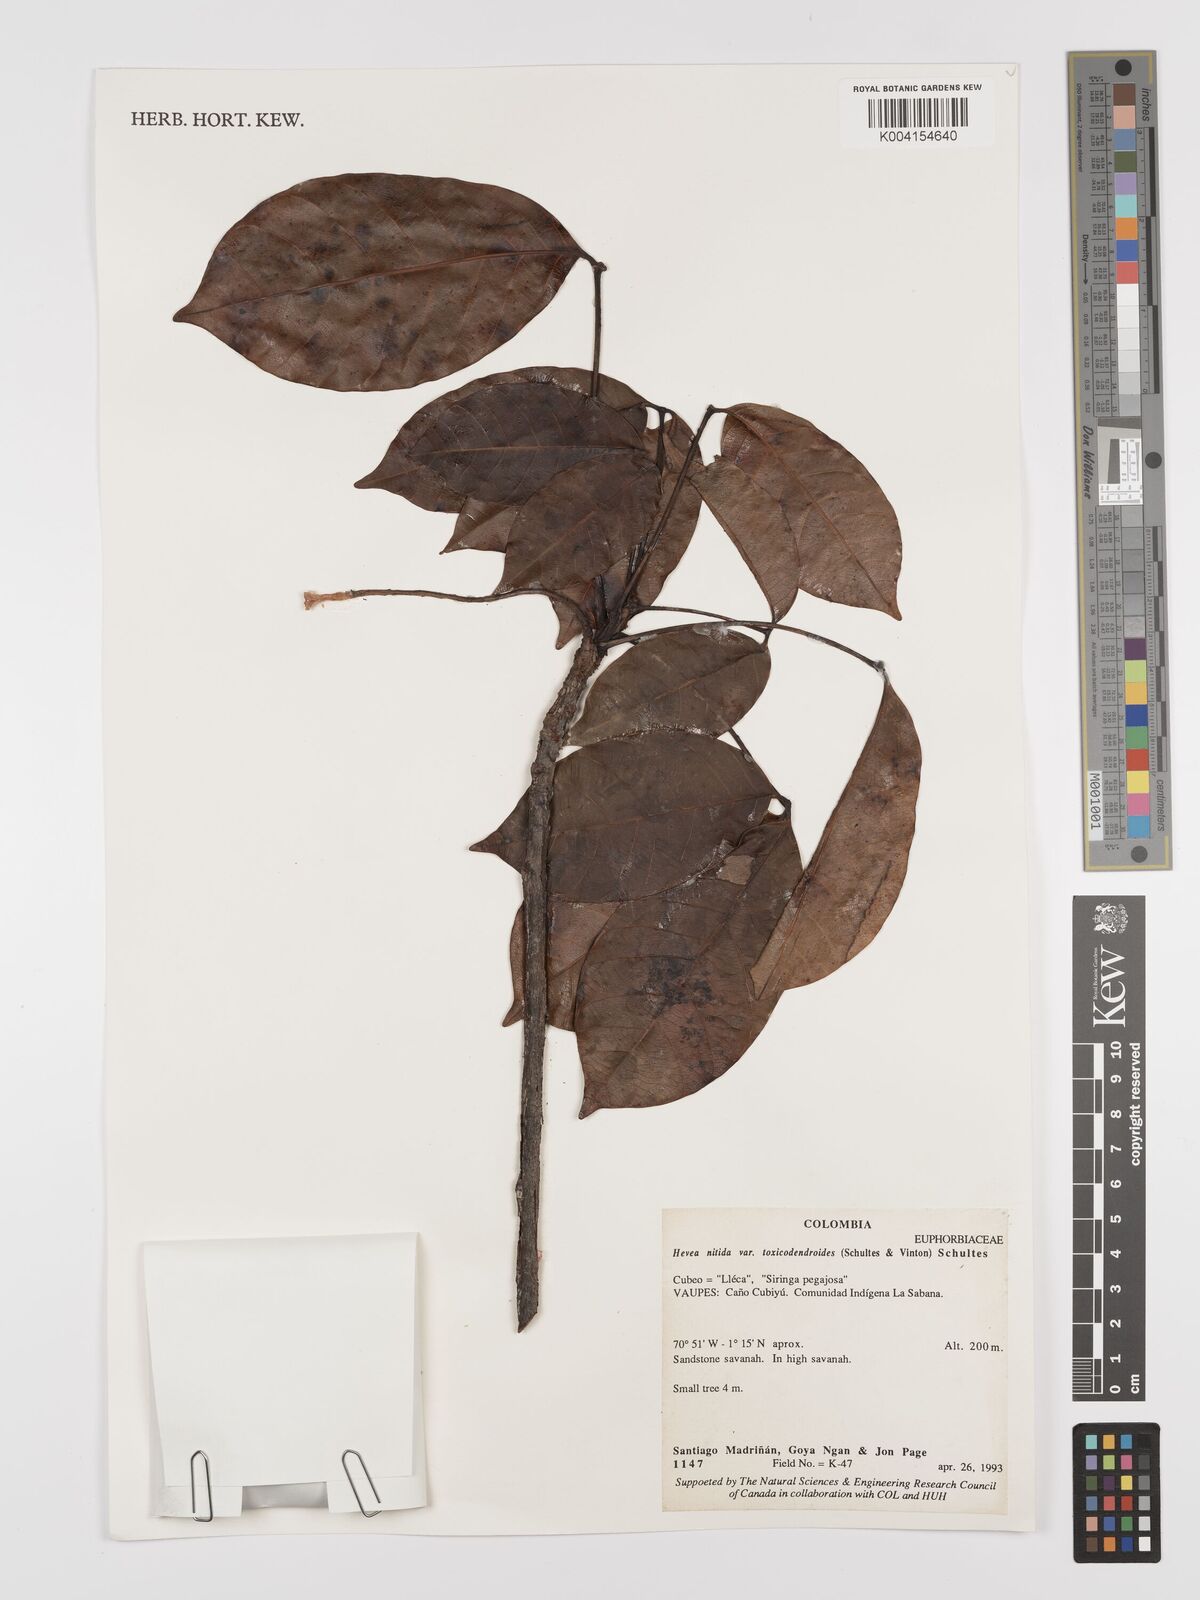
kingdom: Plantae
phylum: Tracheophyta
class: Magnoliopsida
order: Malpighiales
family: Euphorbiaceae
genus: Hevea
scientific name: Hevea nitida
